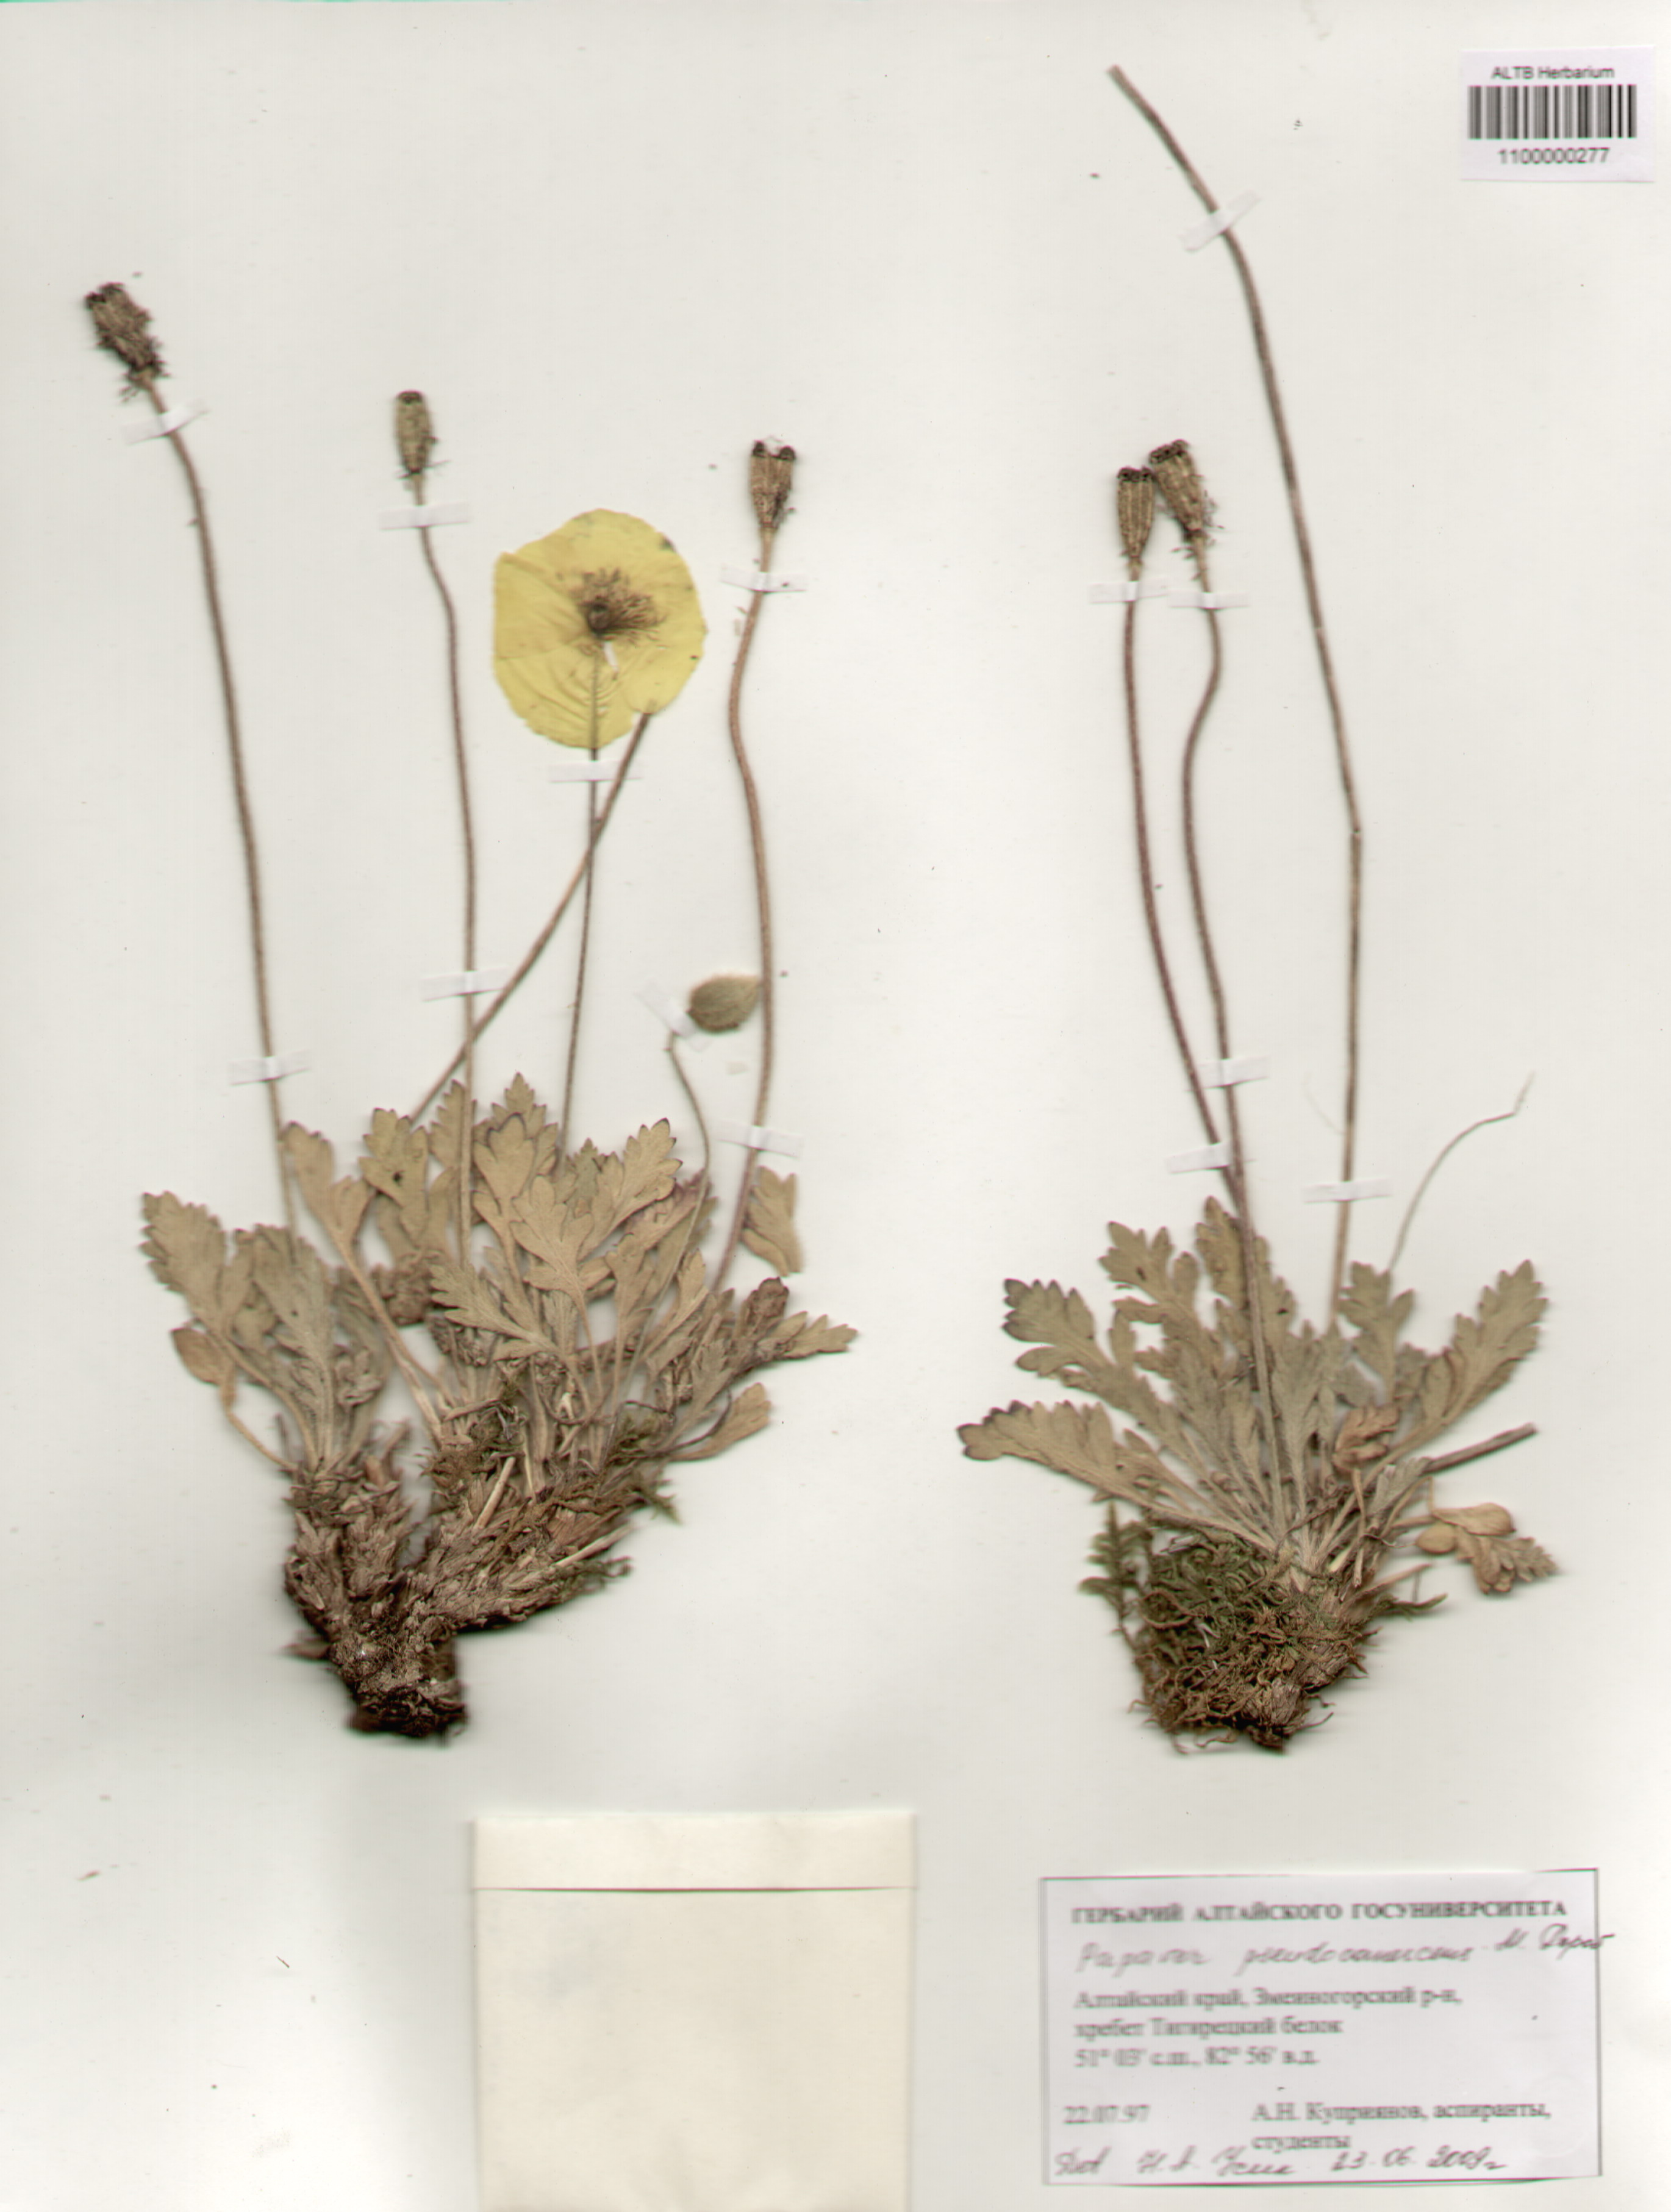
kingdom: Plantae
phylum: Tracheophyta
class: Magnoliopsida
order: Ranunculales
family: Papaveraceae
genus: Papaver
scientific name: Papaver canescens
